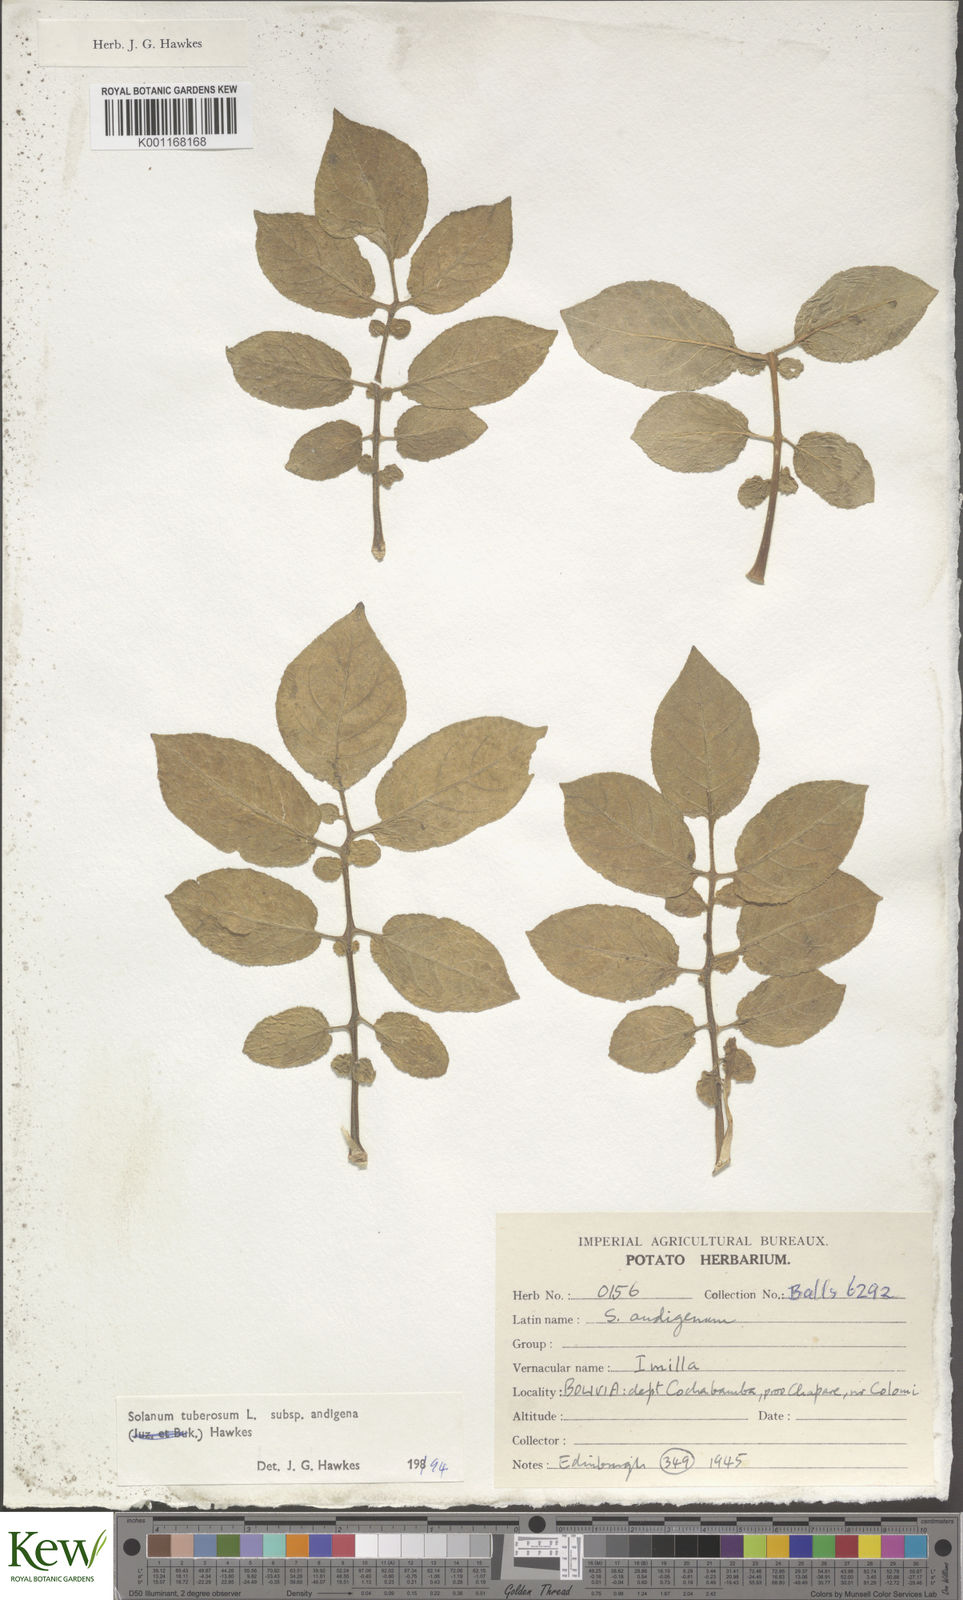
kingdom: Plantae
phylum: Tracheophyta
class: Magnoliopsida
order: Solanales
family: Solanaceae
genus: Solanum
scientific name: Solanum tuberosum
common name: Potato
